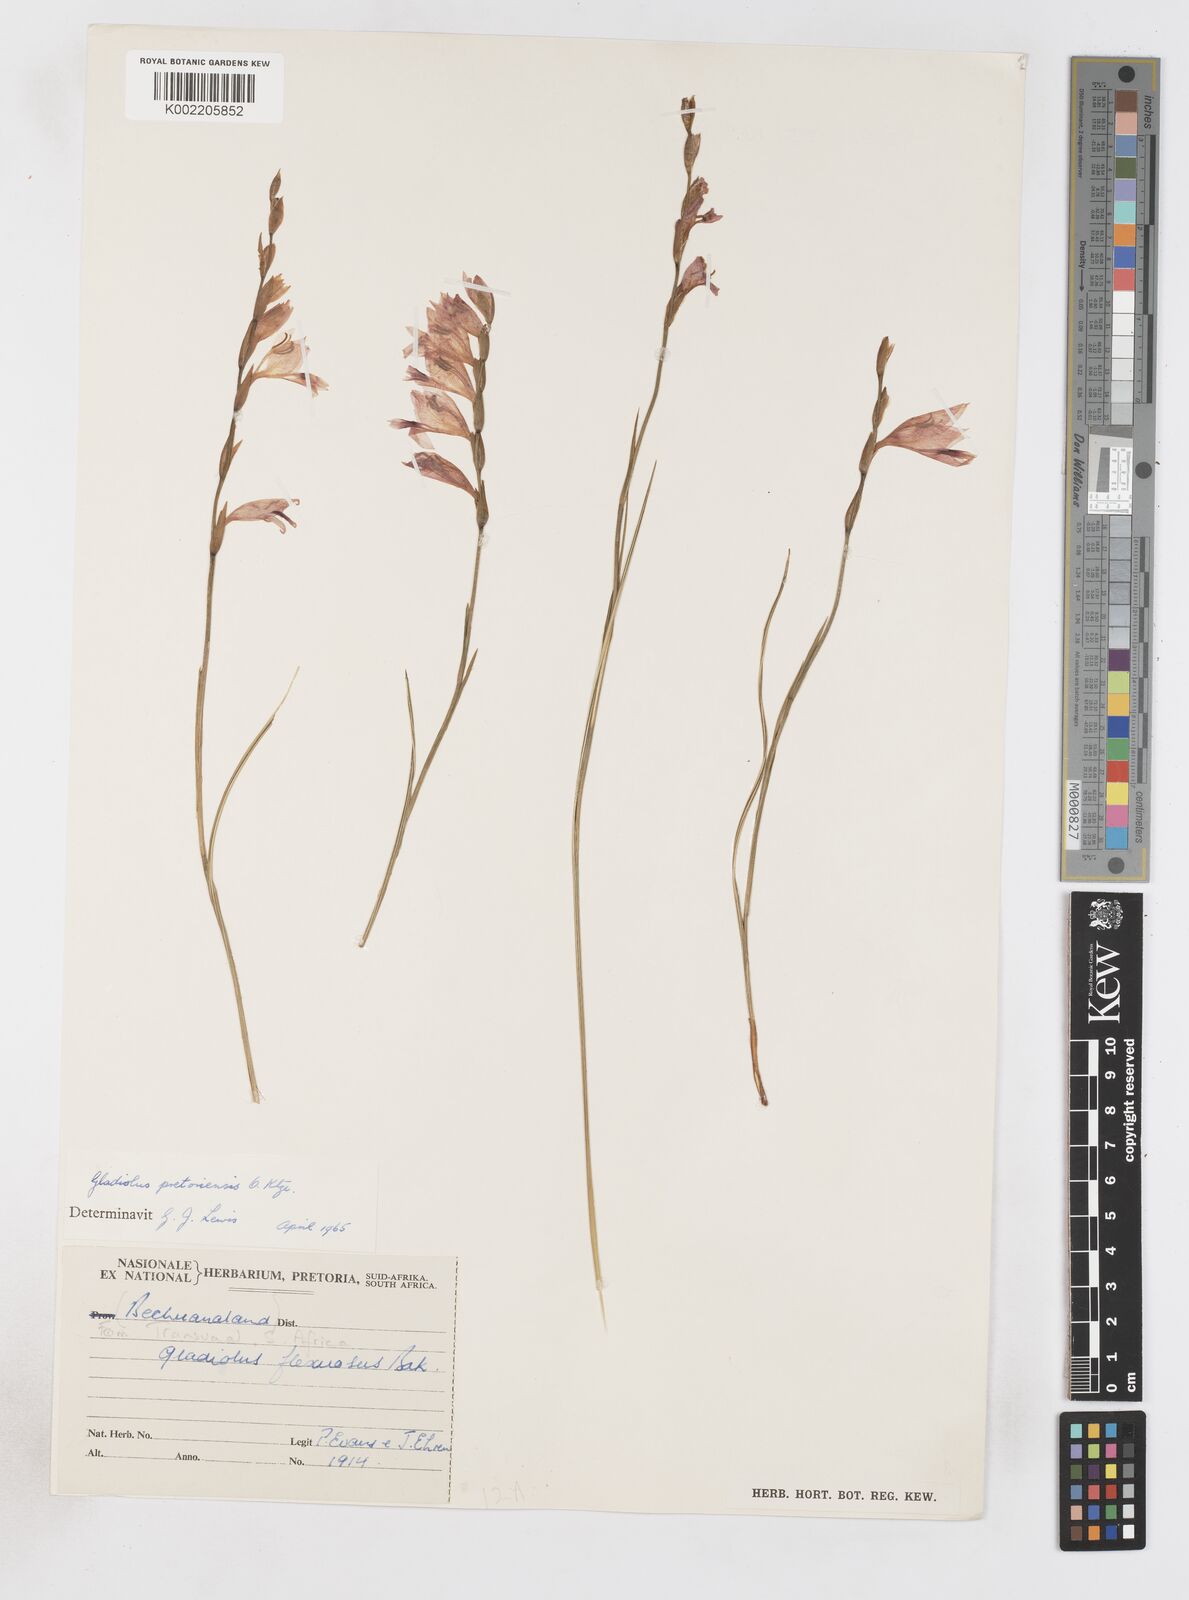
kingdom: Plantae
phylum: Tracheophyta
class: Liliopsida
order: Asparagales
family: Iridaceae
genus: Gladiolus
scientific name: Gladiolus pretoriensis
